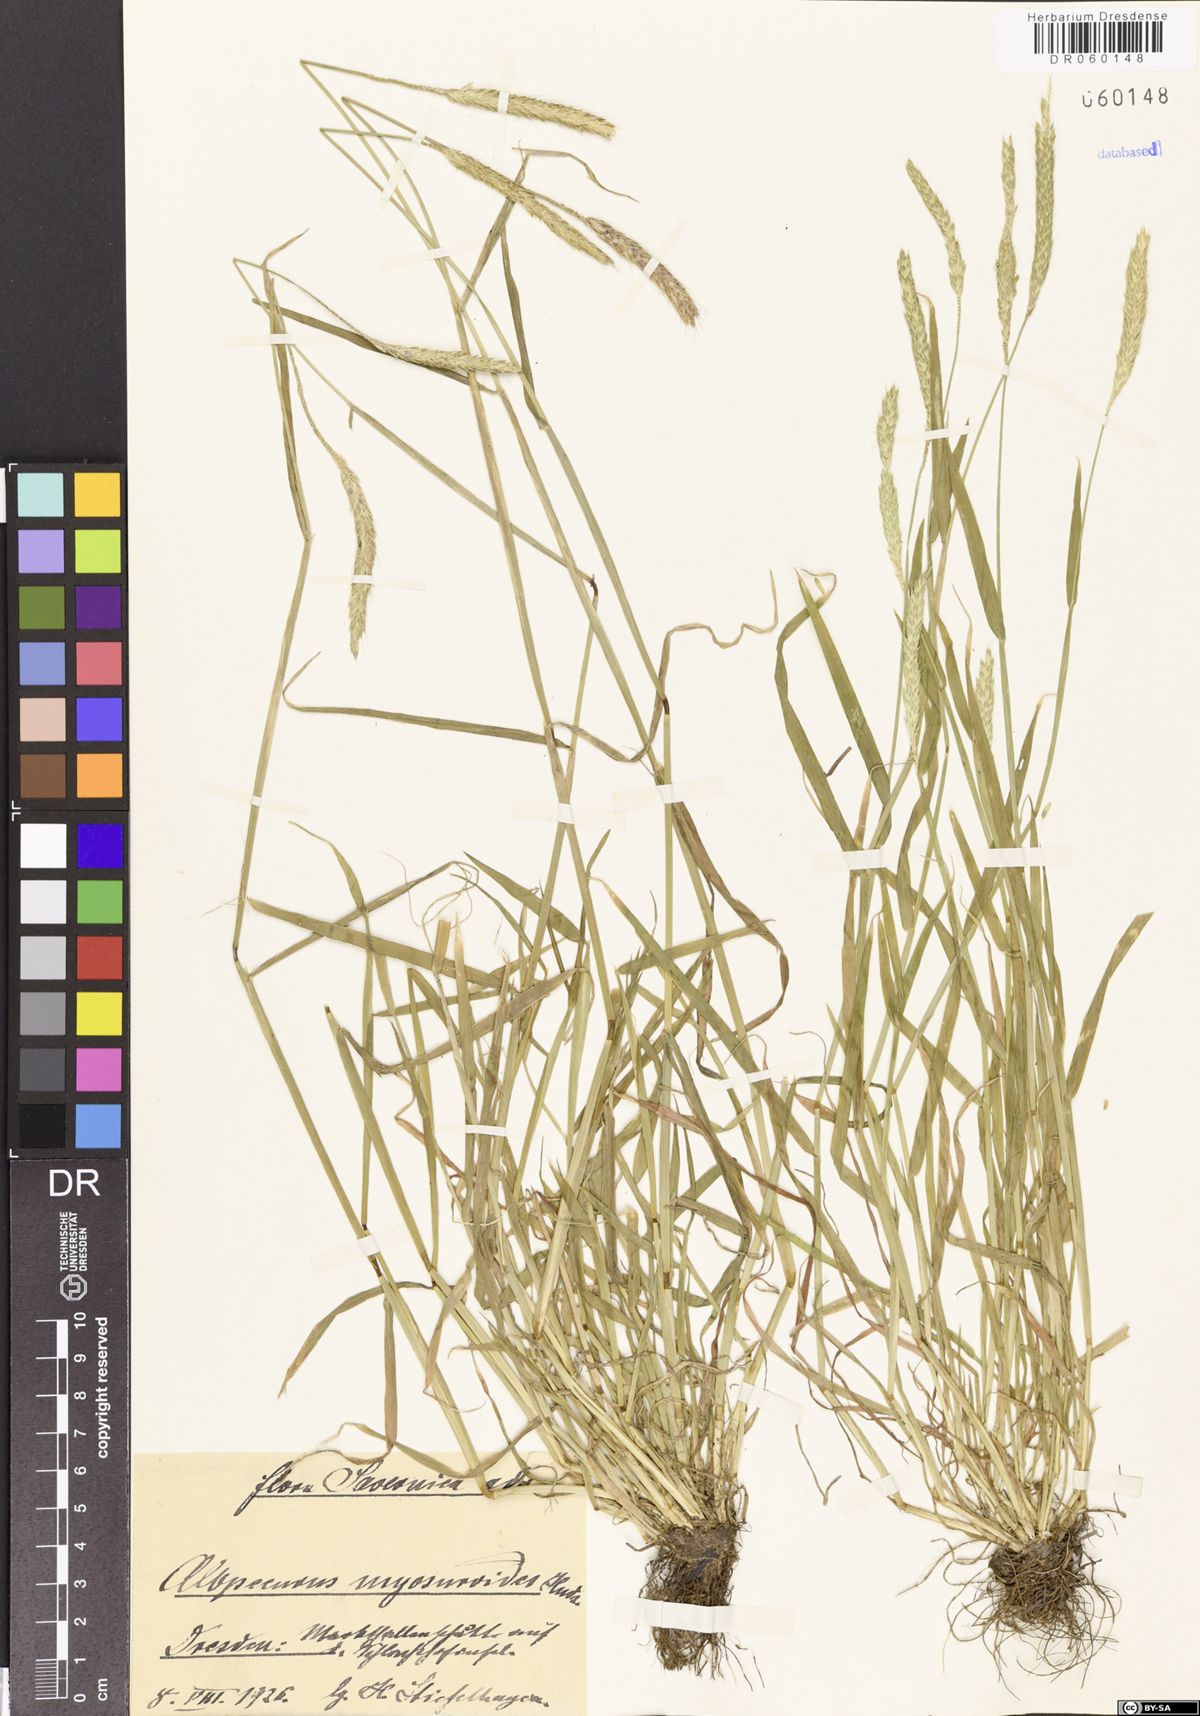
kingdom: Plantae
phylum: Tracheophyta
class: Liliopsida
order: Poales
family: Poaceae
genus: Alopecurus
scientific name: Alopecurus myosuroides
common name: Black-grass
